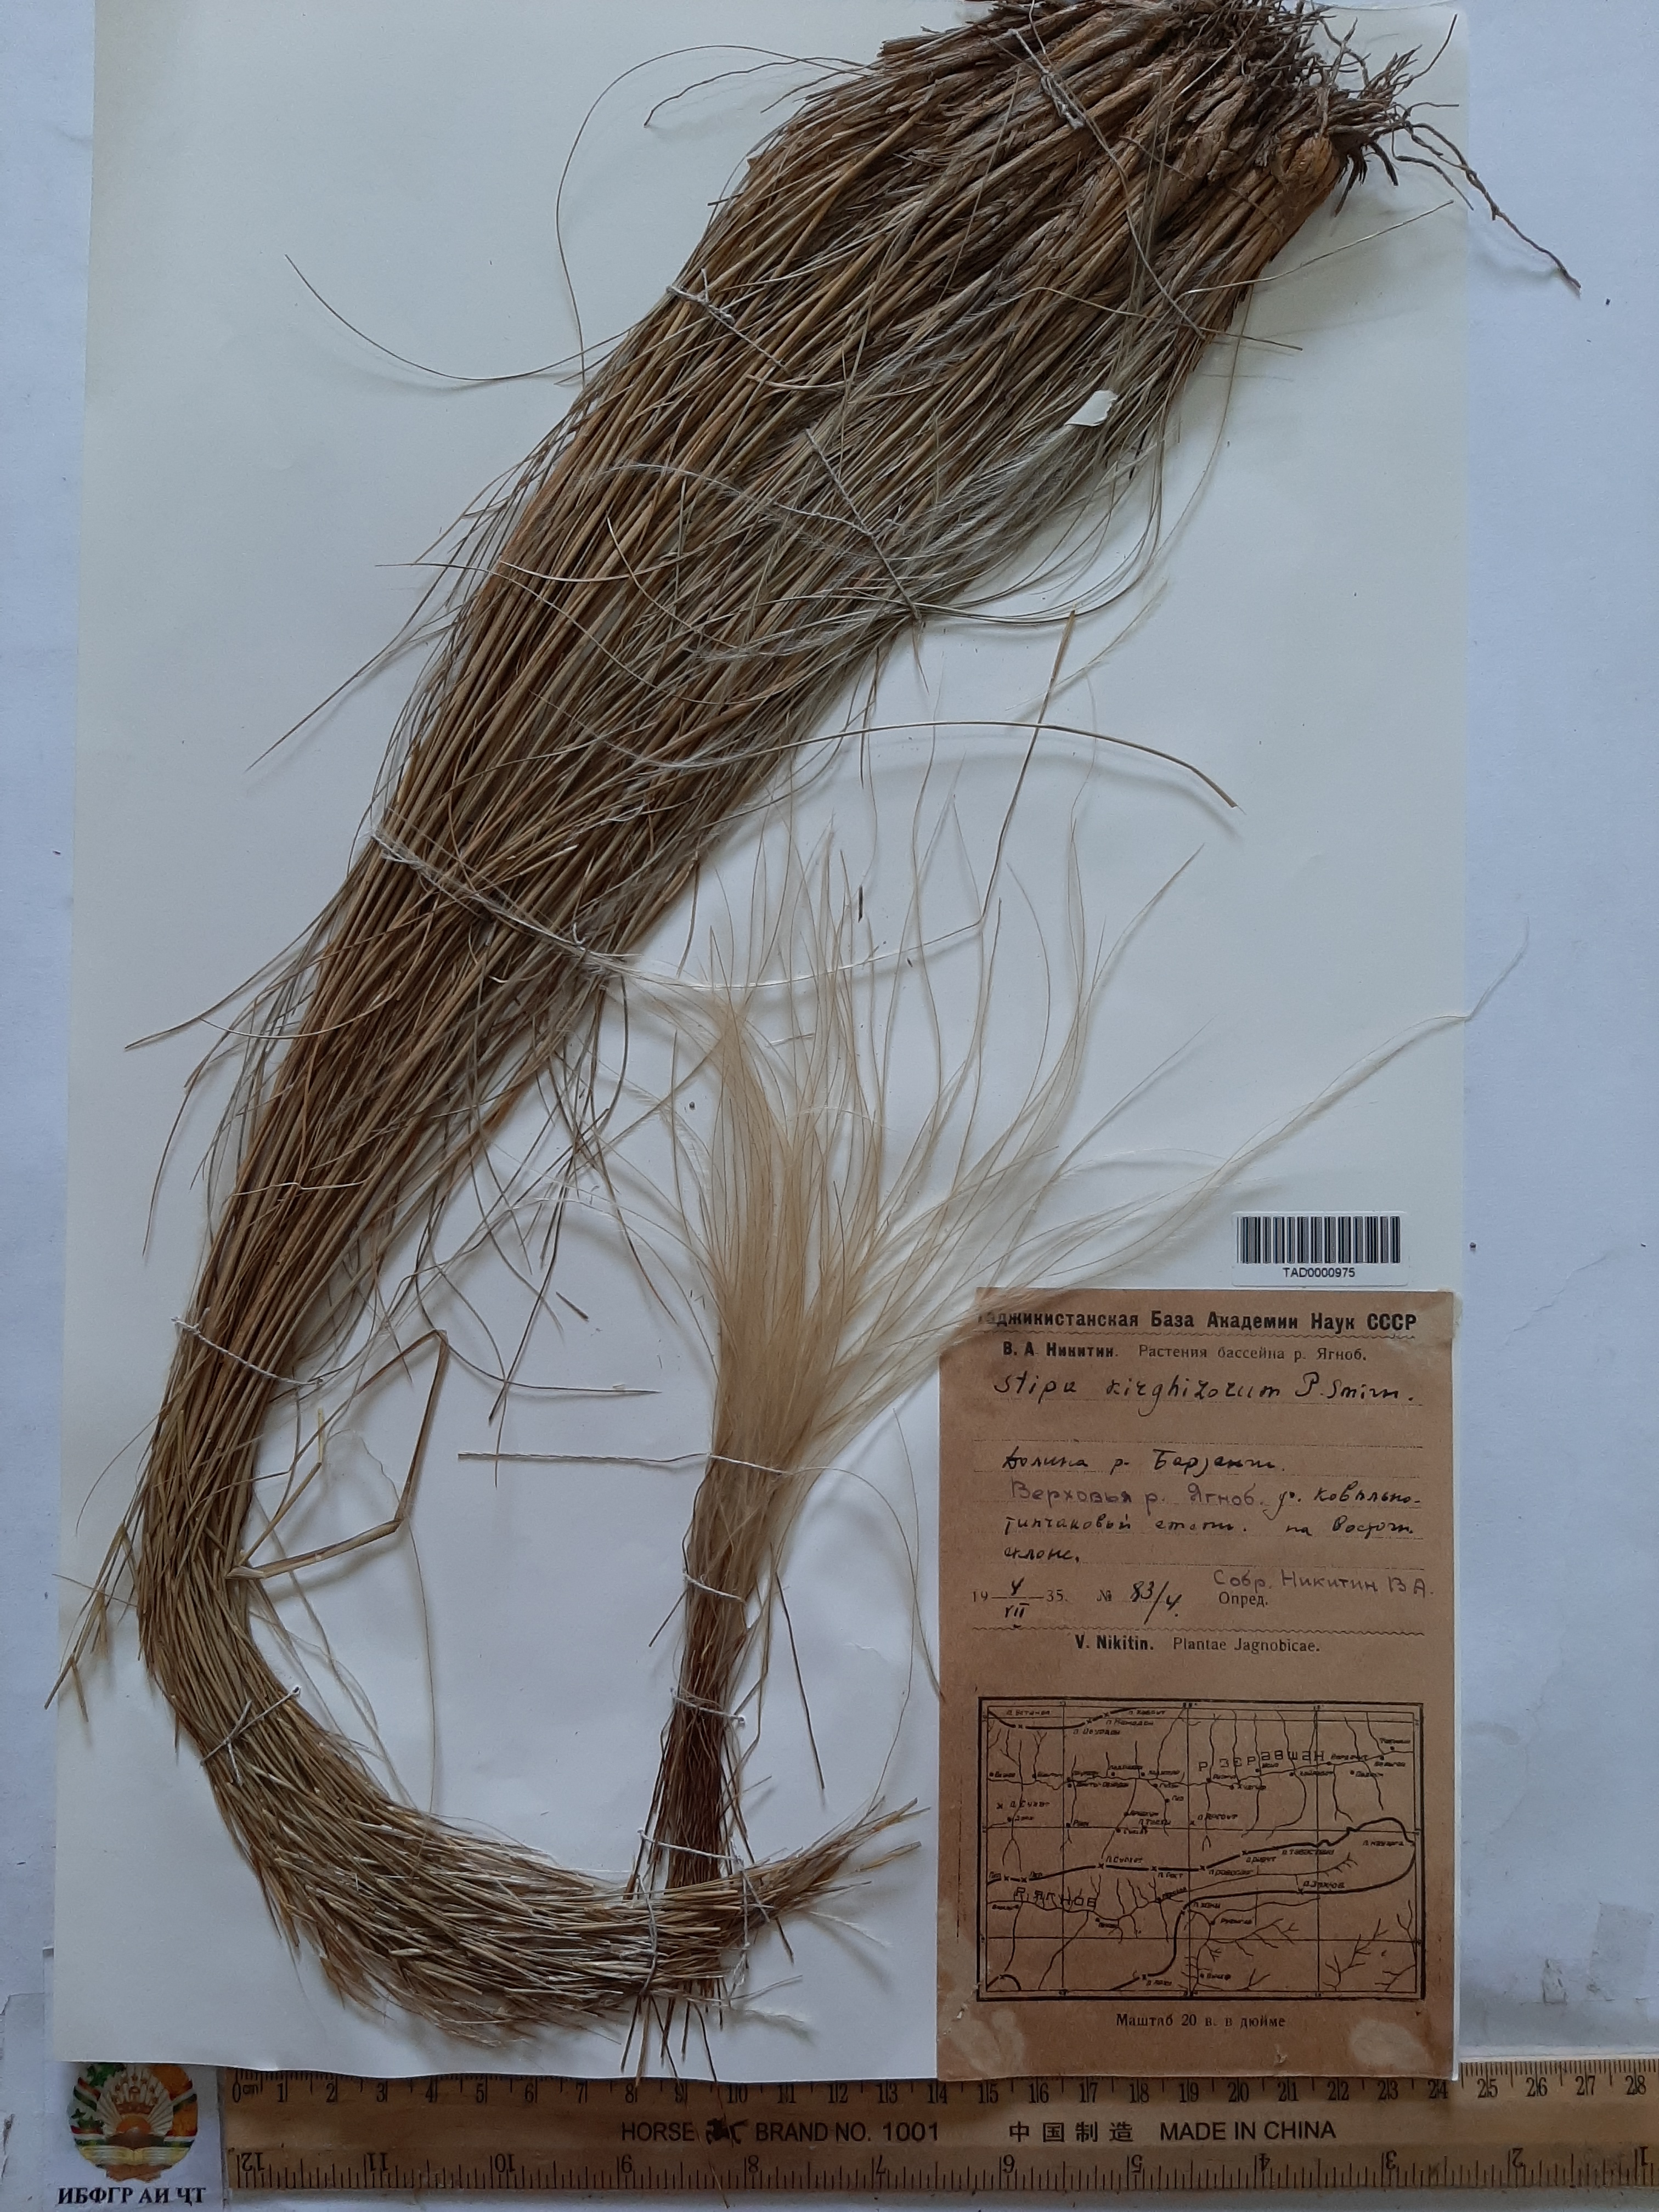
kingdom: Plantae
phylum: Tracheophyta
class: Liliopsida
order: Poales
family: Poaceae
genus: Stipa
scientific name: Stipa kirghisorum
